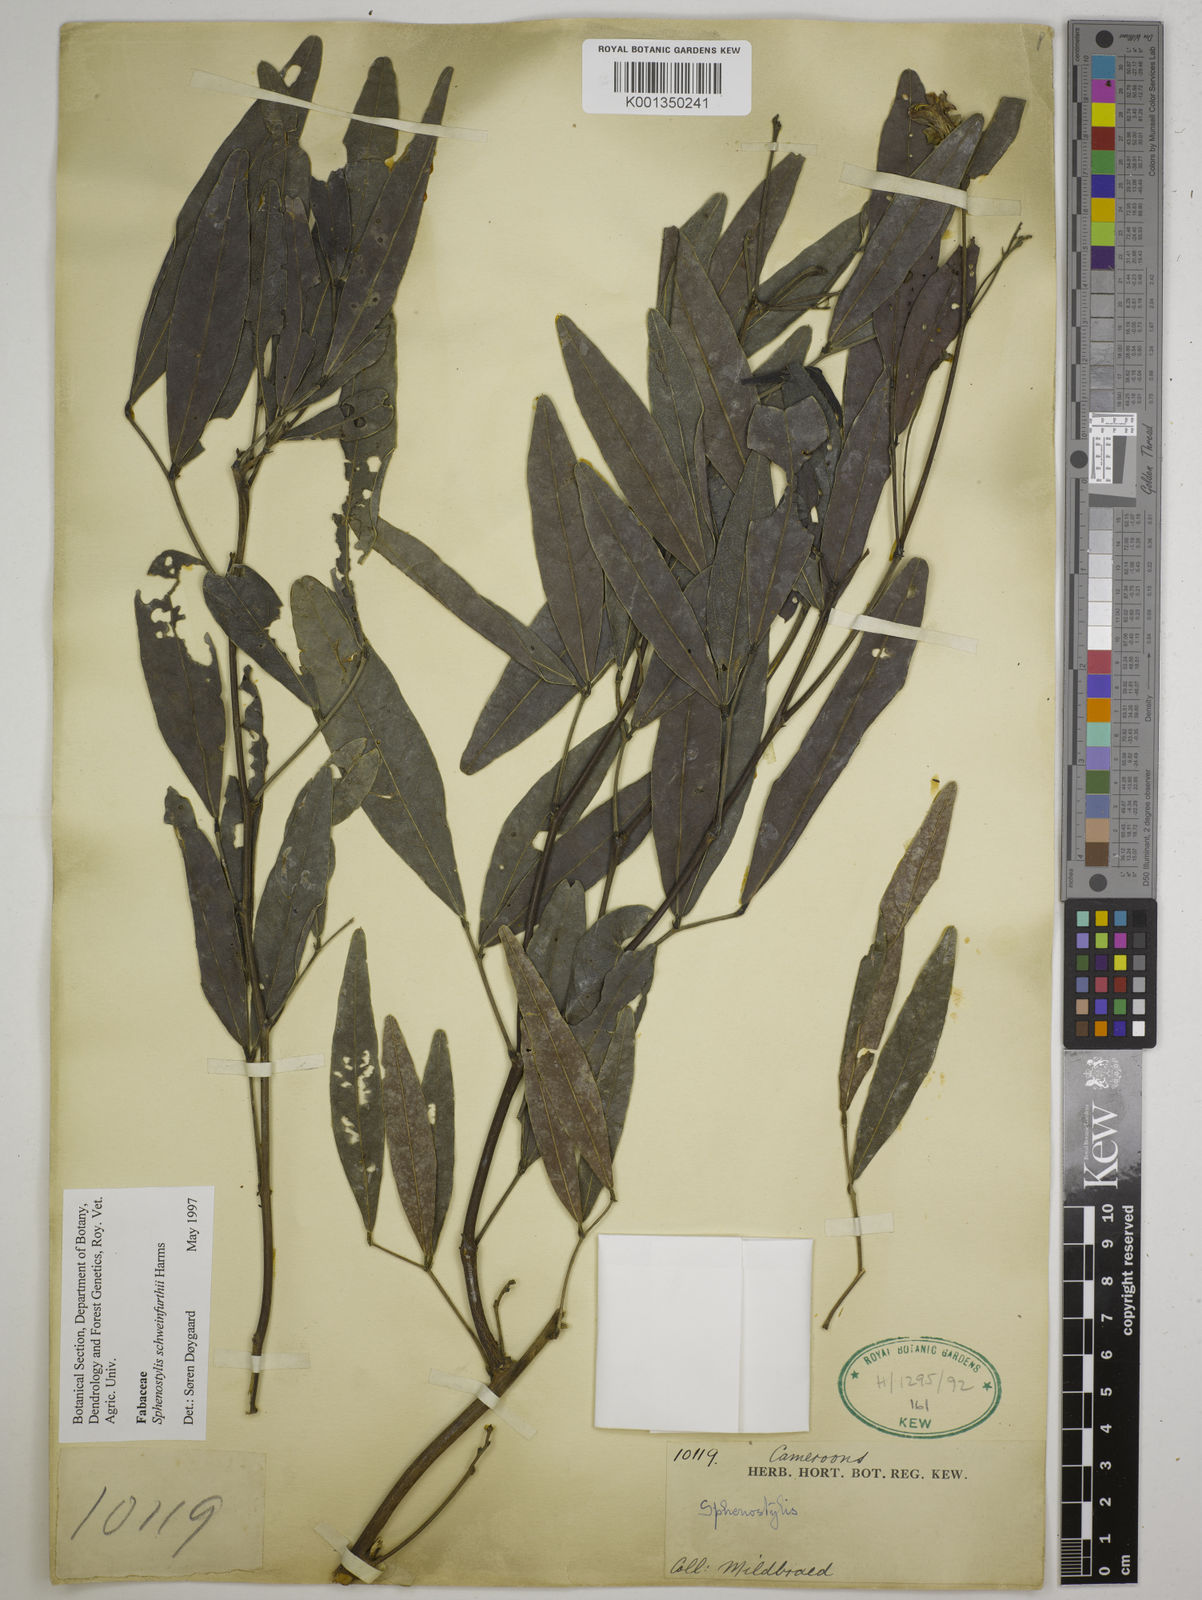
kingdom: Plantae
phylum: Tracheophyta
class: Magnoliopsida
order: Fabales
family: Fabaceae
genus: Sphenostylis
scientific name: Sphenostylis schweinfurthii
